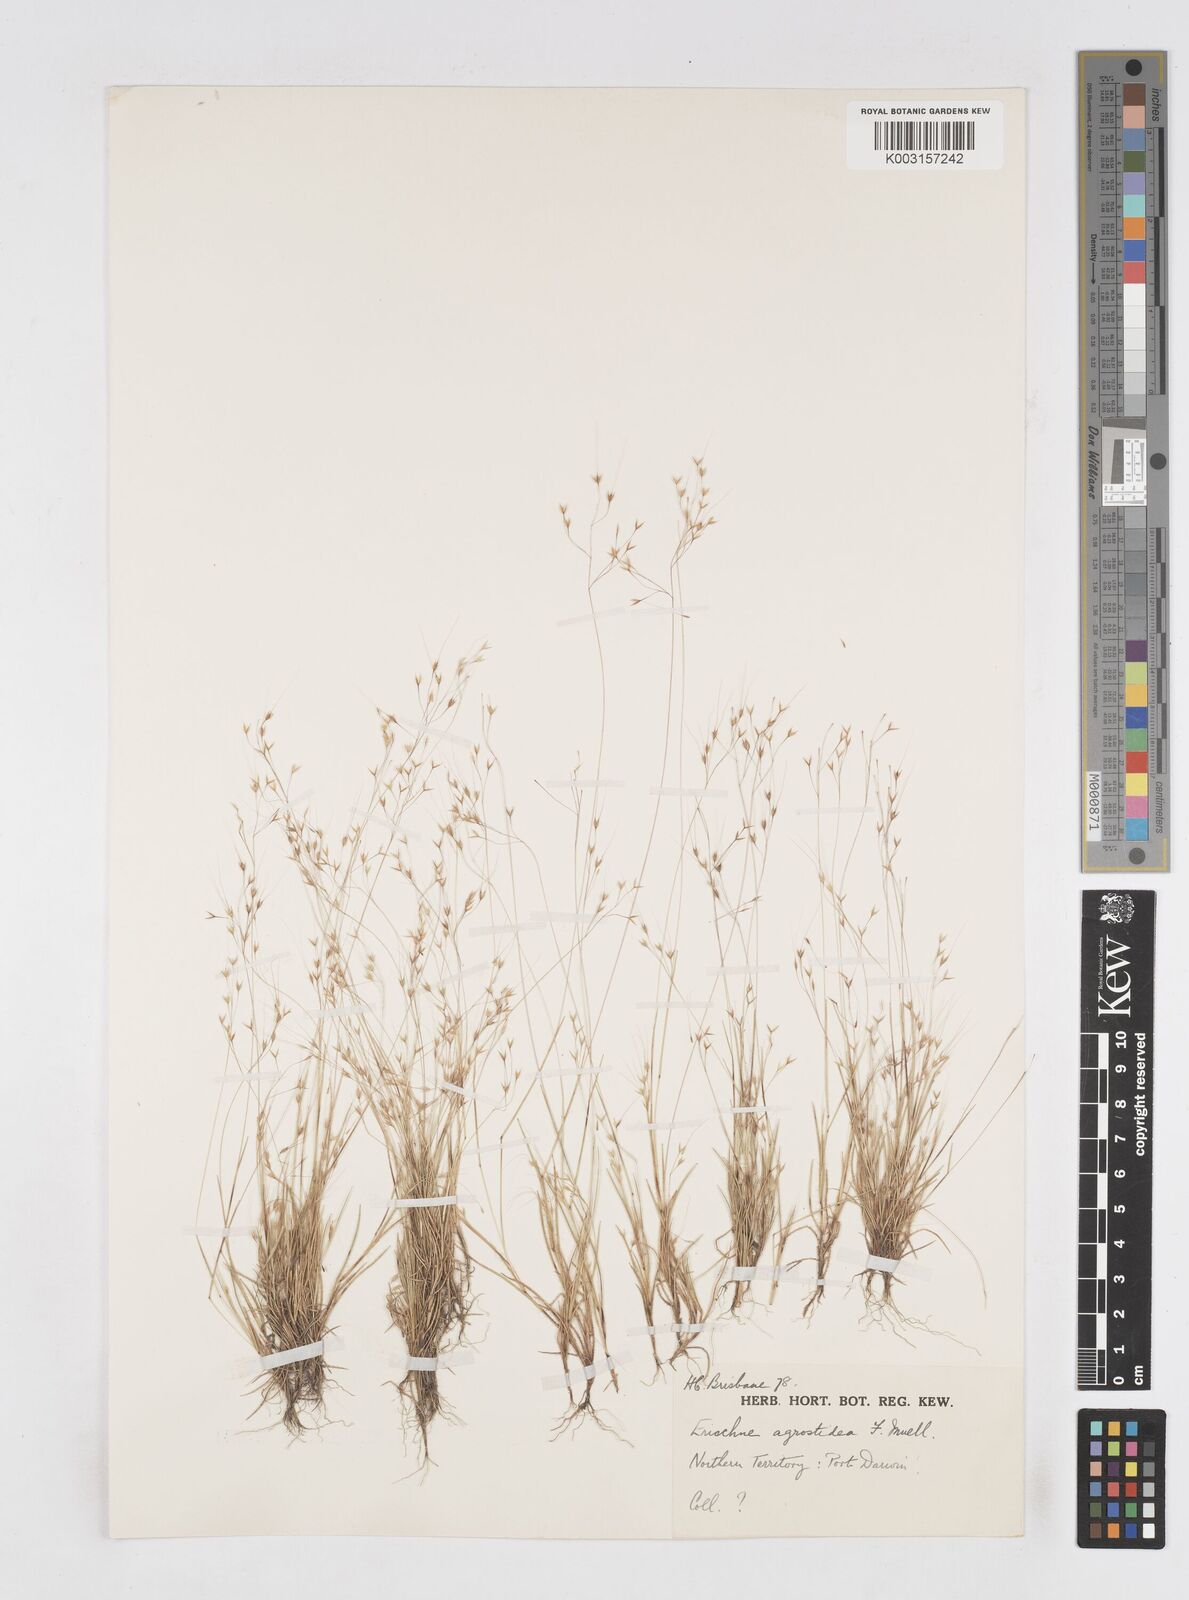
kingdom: Plantae
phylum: Tracheophyta
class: Liliopsida
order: Poales
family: Poaceae
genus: Eriachne
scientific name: Eriachne agrostidea
